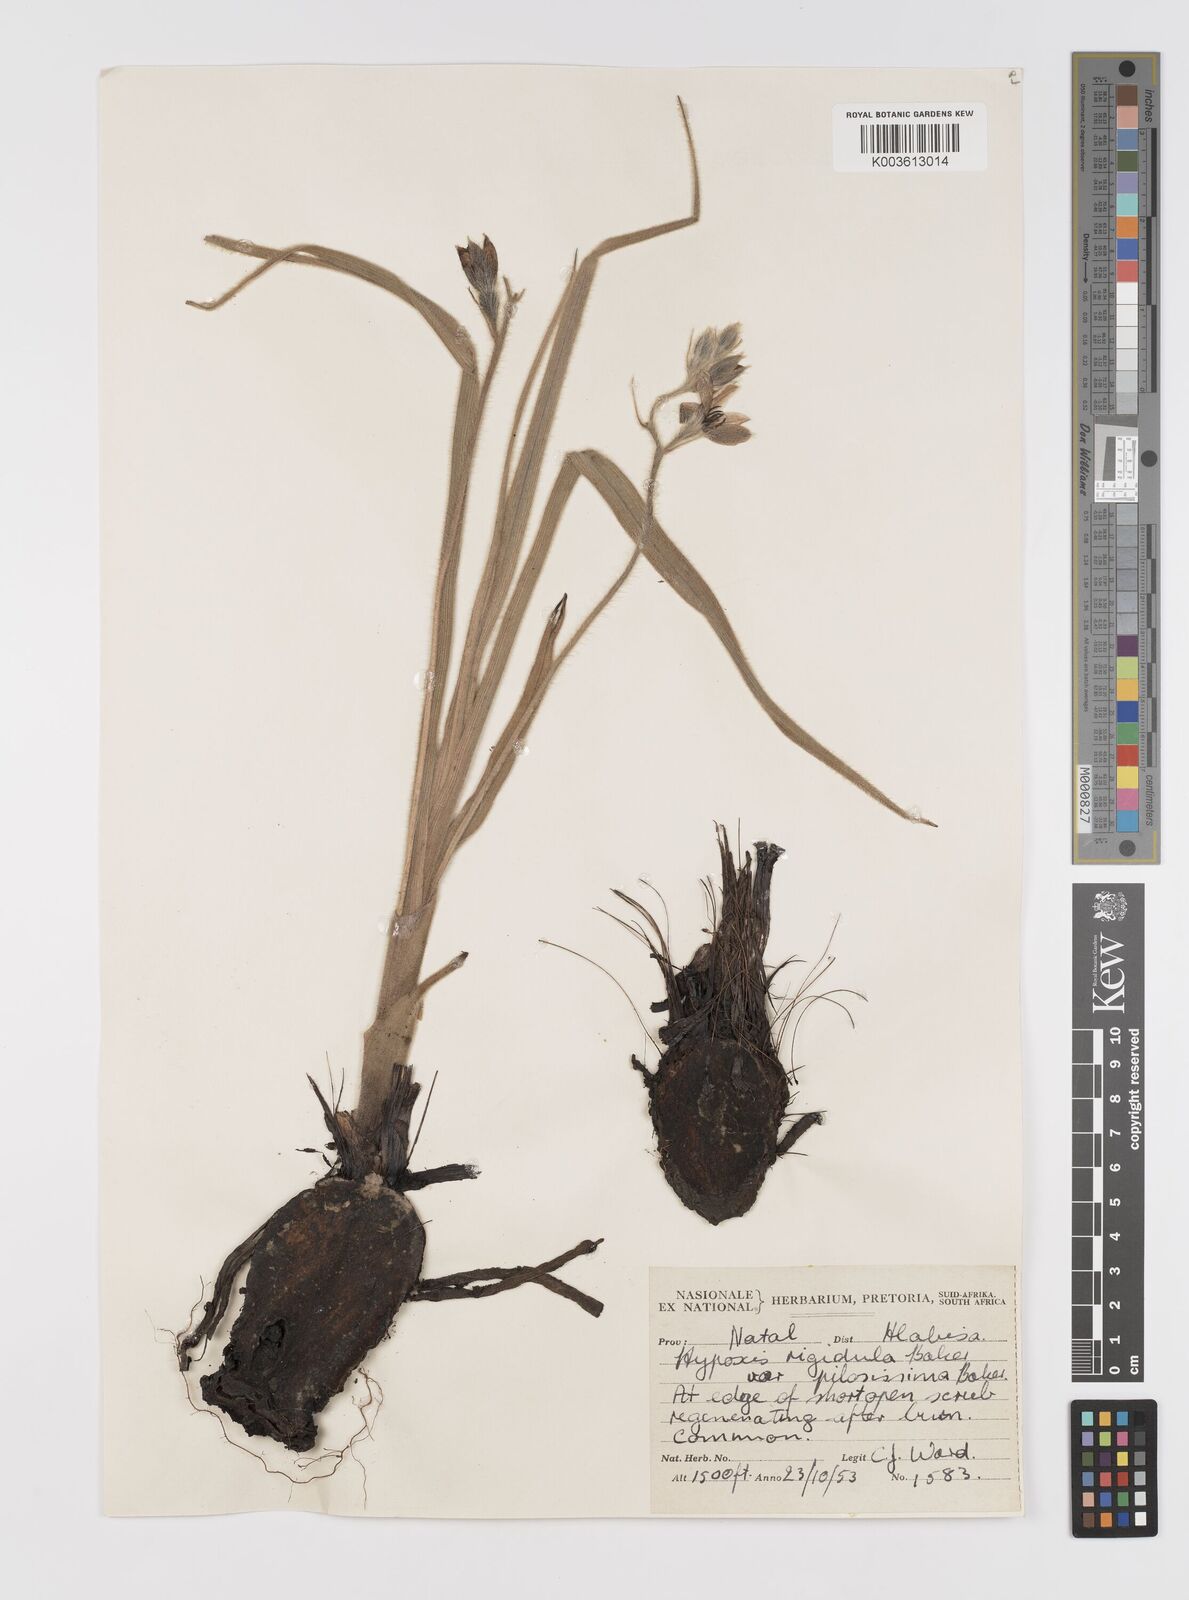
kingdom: Plantae
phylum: Tracheophyta
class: Liliopsida
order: Asparagales
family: Hypoxidaceae
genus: Hypoxis
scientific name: Hypoxis rigidula
